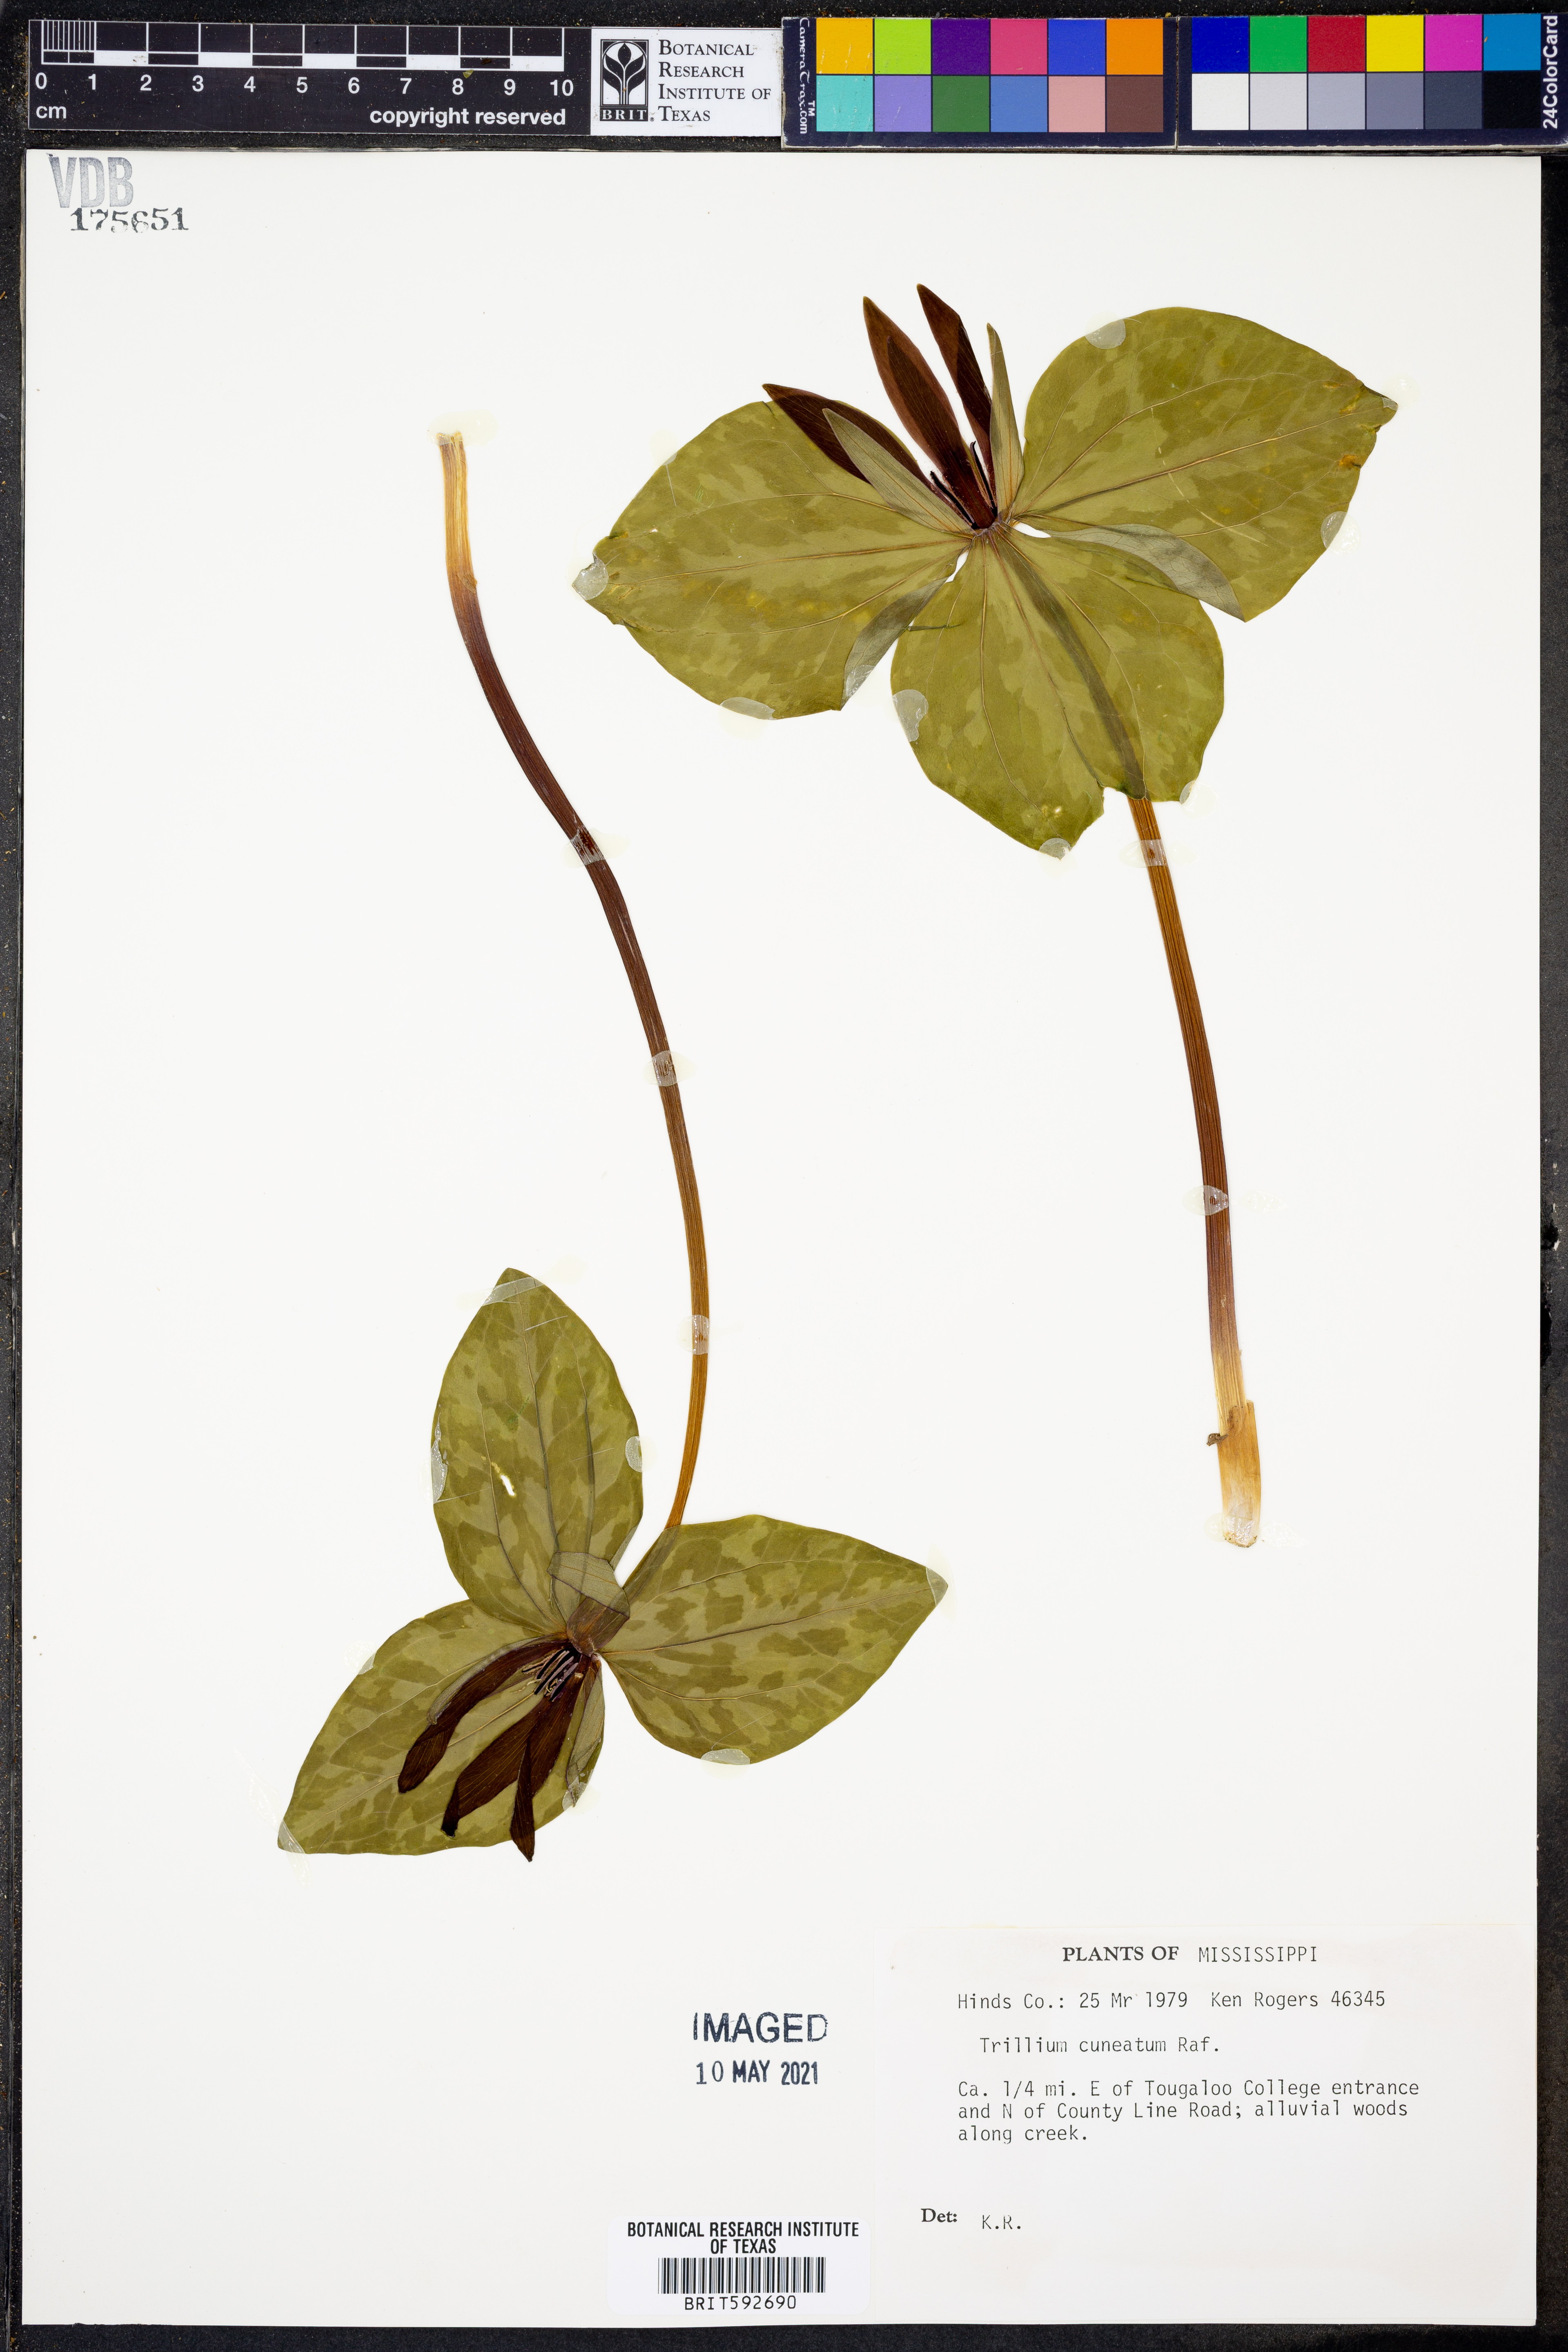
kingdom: Plantae
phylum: Tracheophyta
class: Liliopsida
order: Liliales
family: Melanthiaceae
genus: Trillium
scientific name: Trillium cuneatum
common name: Cuneate trillium
